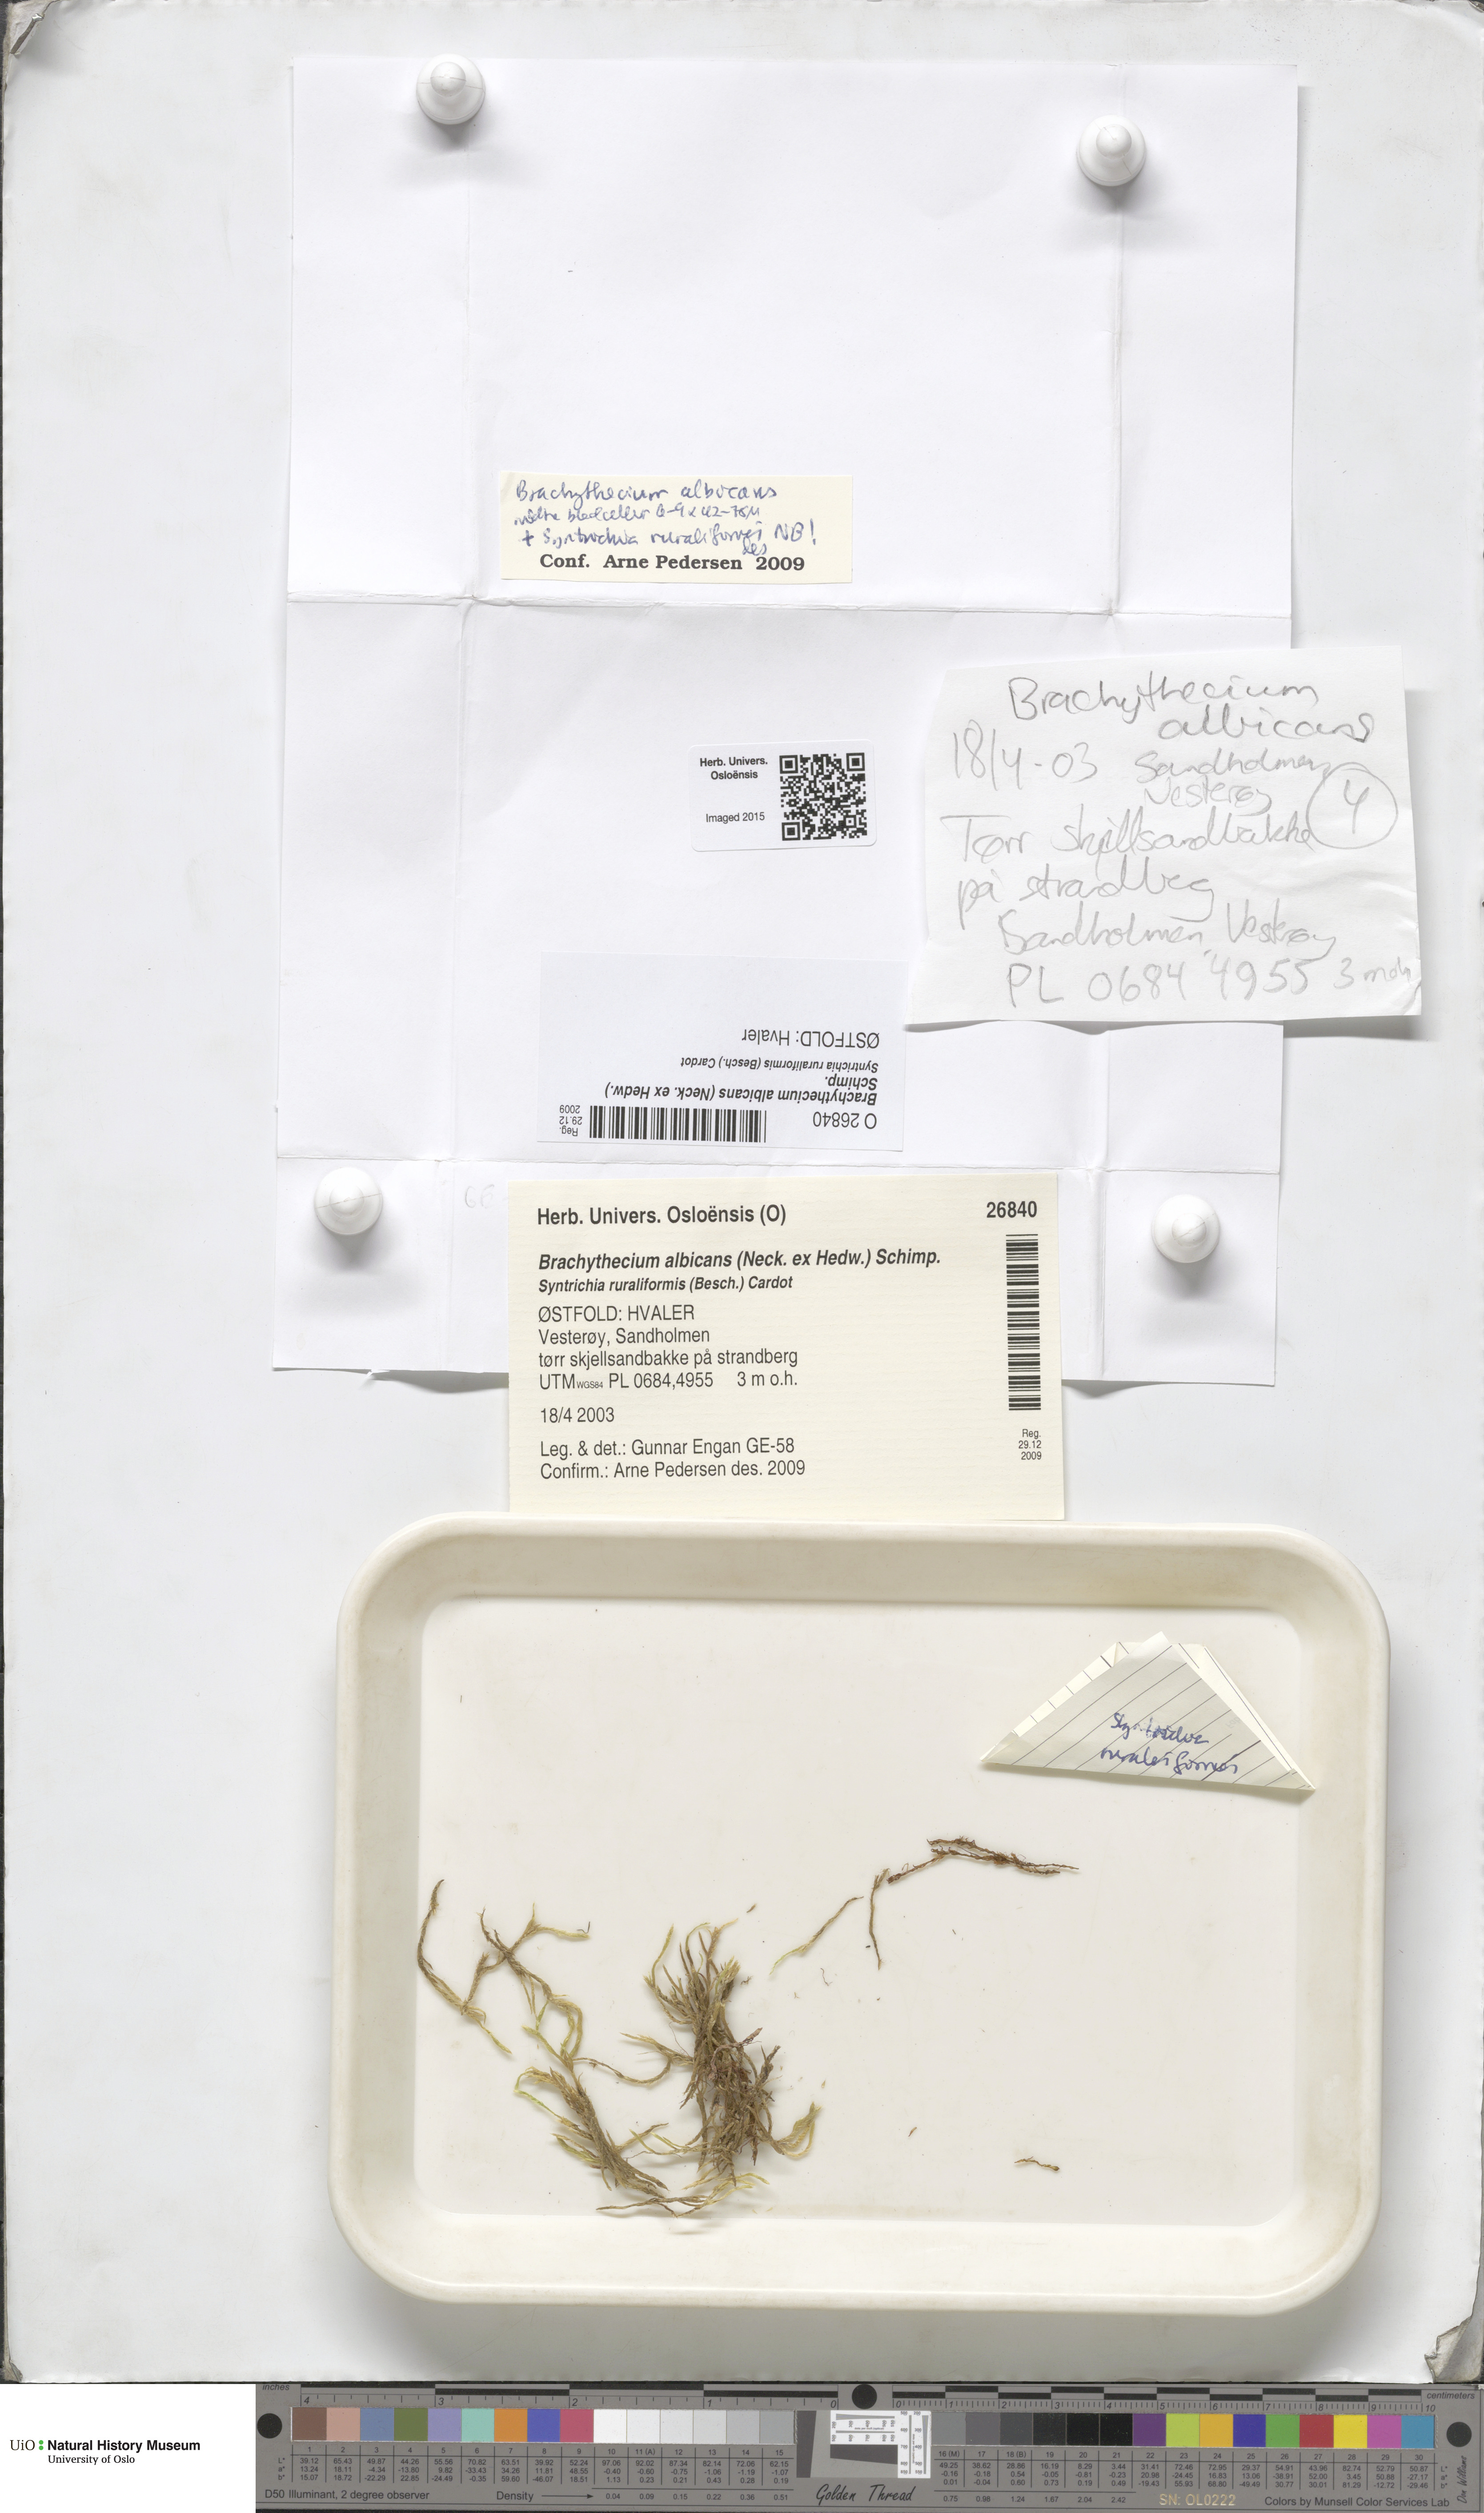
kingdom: Plantae
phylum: Bryophyta
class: Bryopsida
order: Hypnales
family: Brachytheciaceae
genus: Brachythecium
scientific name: Brachythecium albicans
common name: Whitish ragged moss
